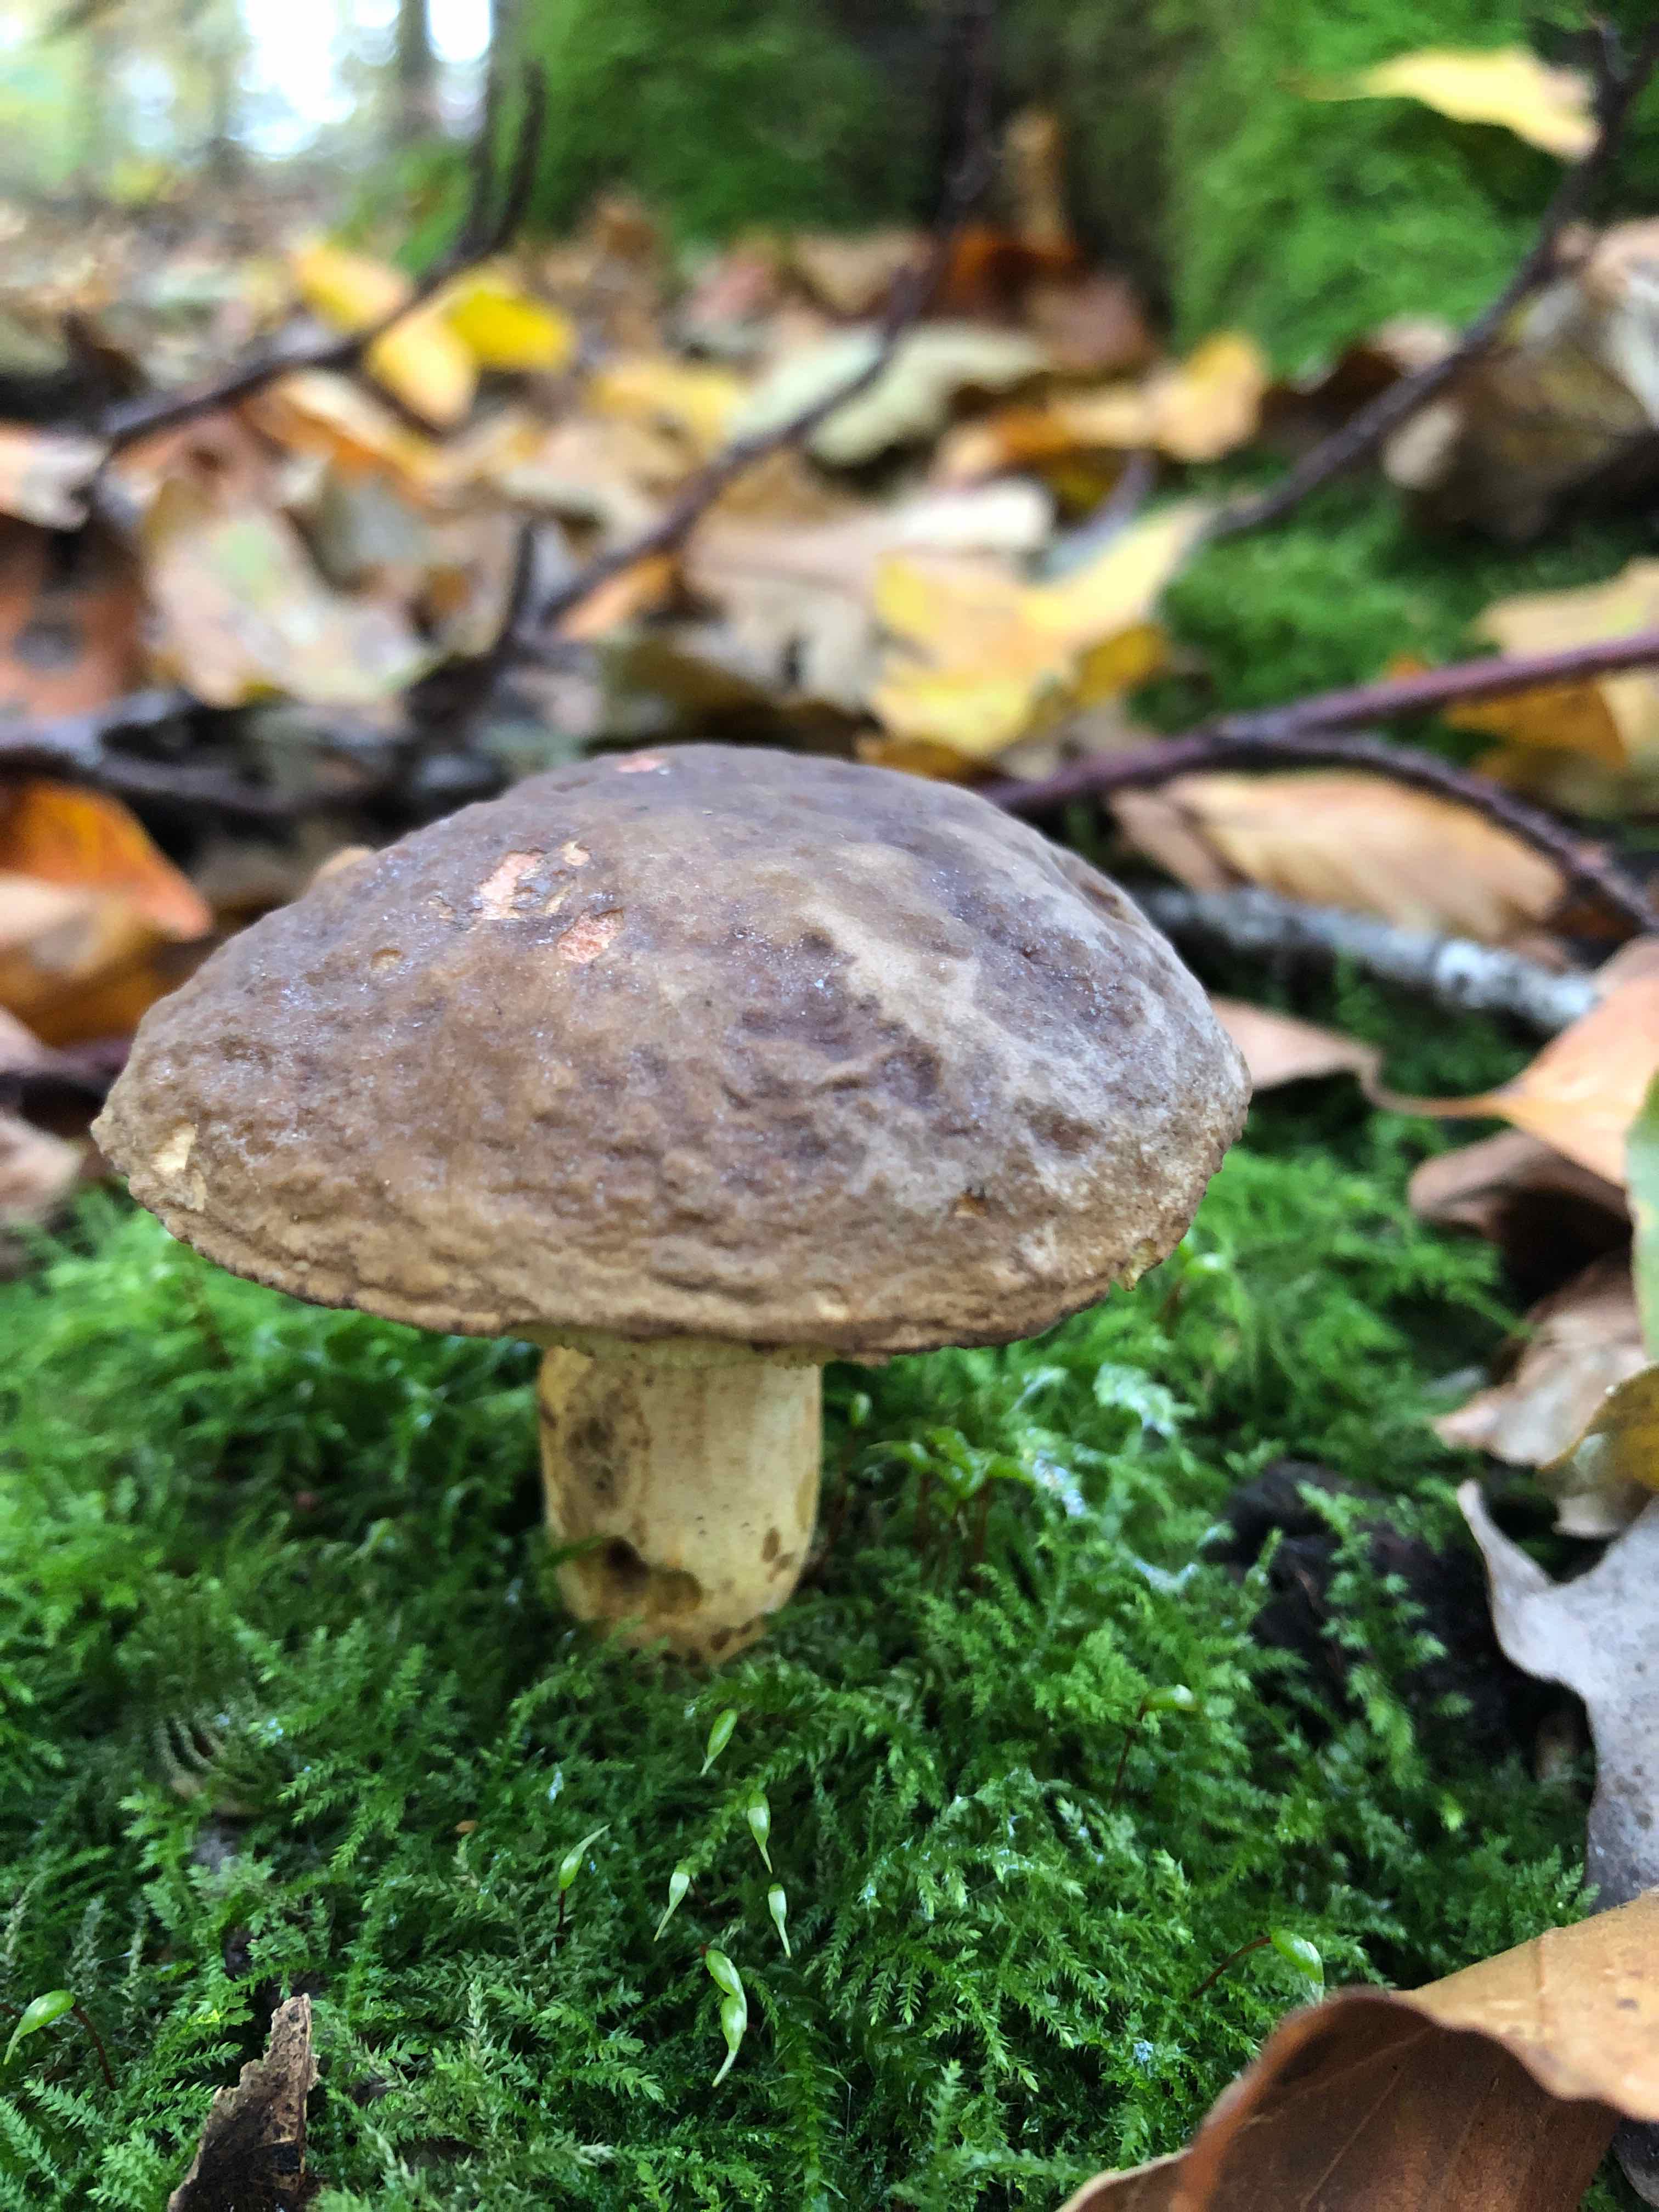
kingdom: Fungi
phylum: Basidiomycota
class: Agaricomycetes
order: Boletales
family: Boletaceae
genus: Xerocomellus
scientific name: Xerocomellus pruinatus
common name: dugget rørhat
